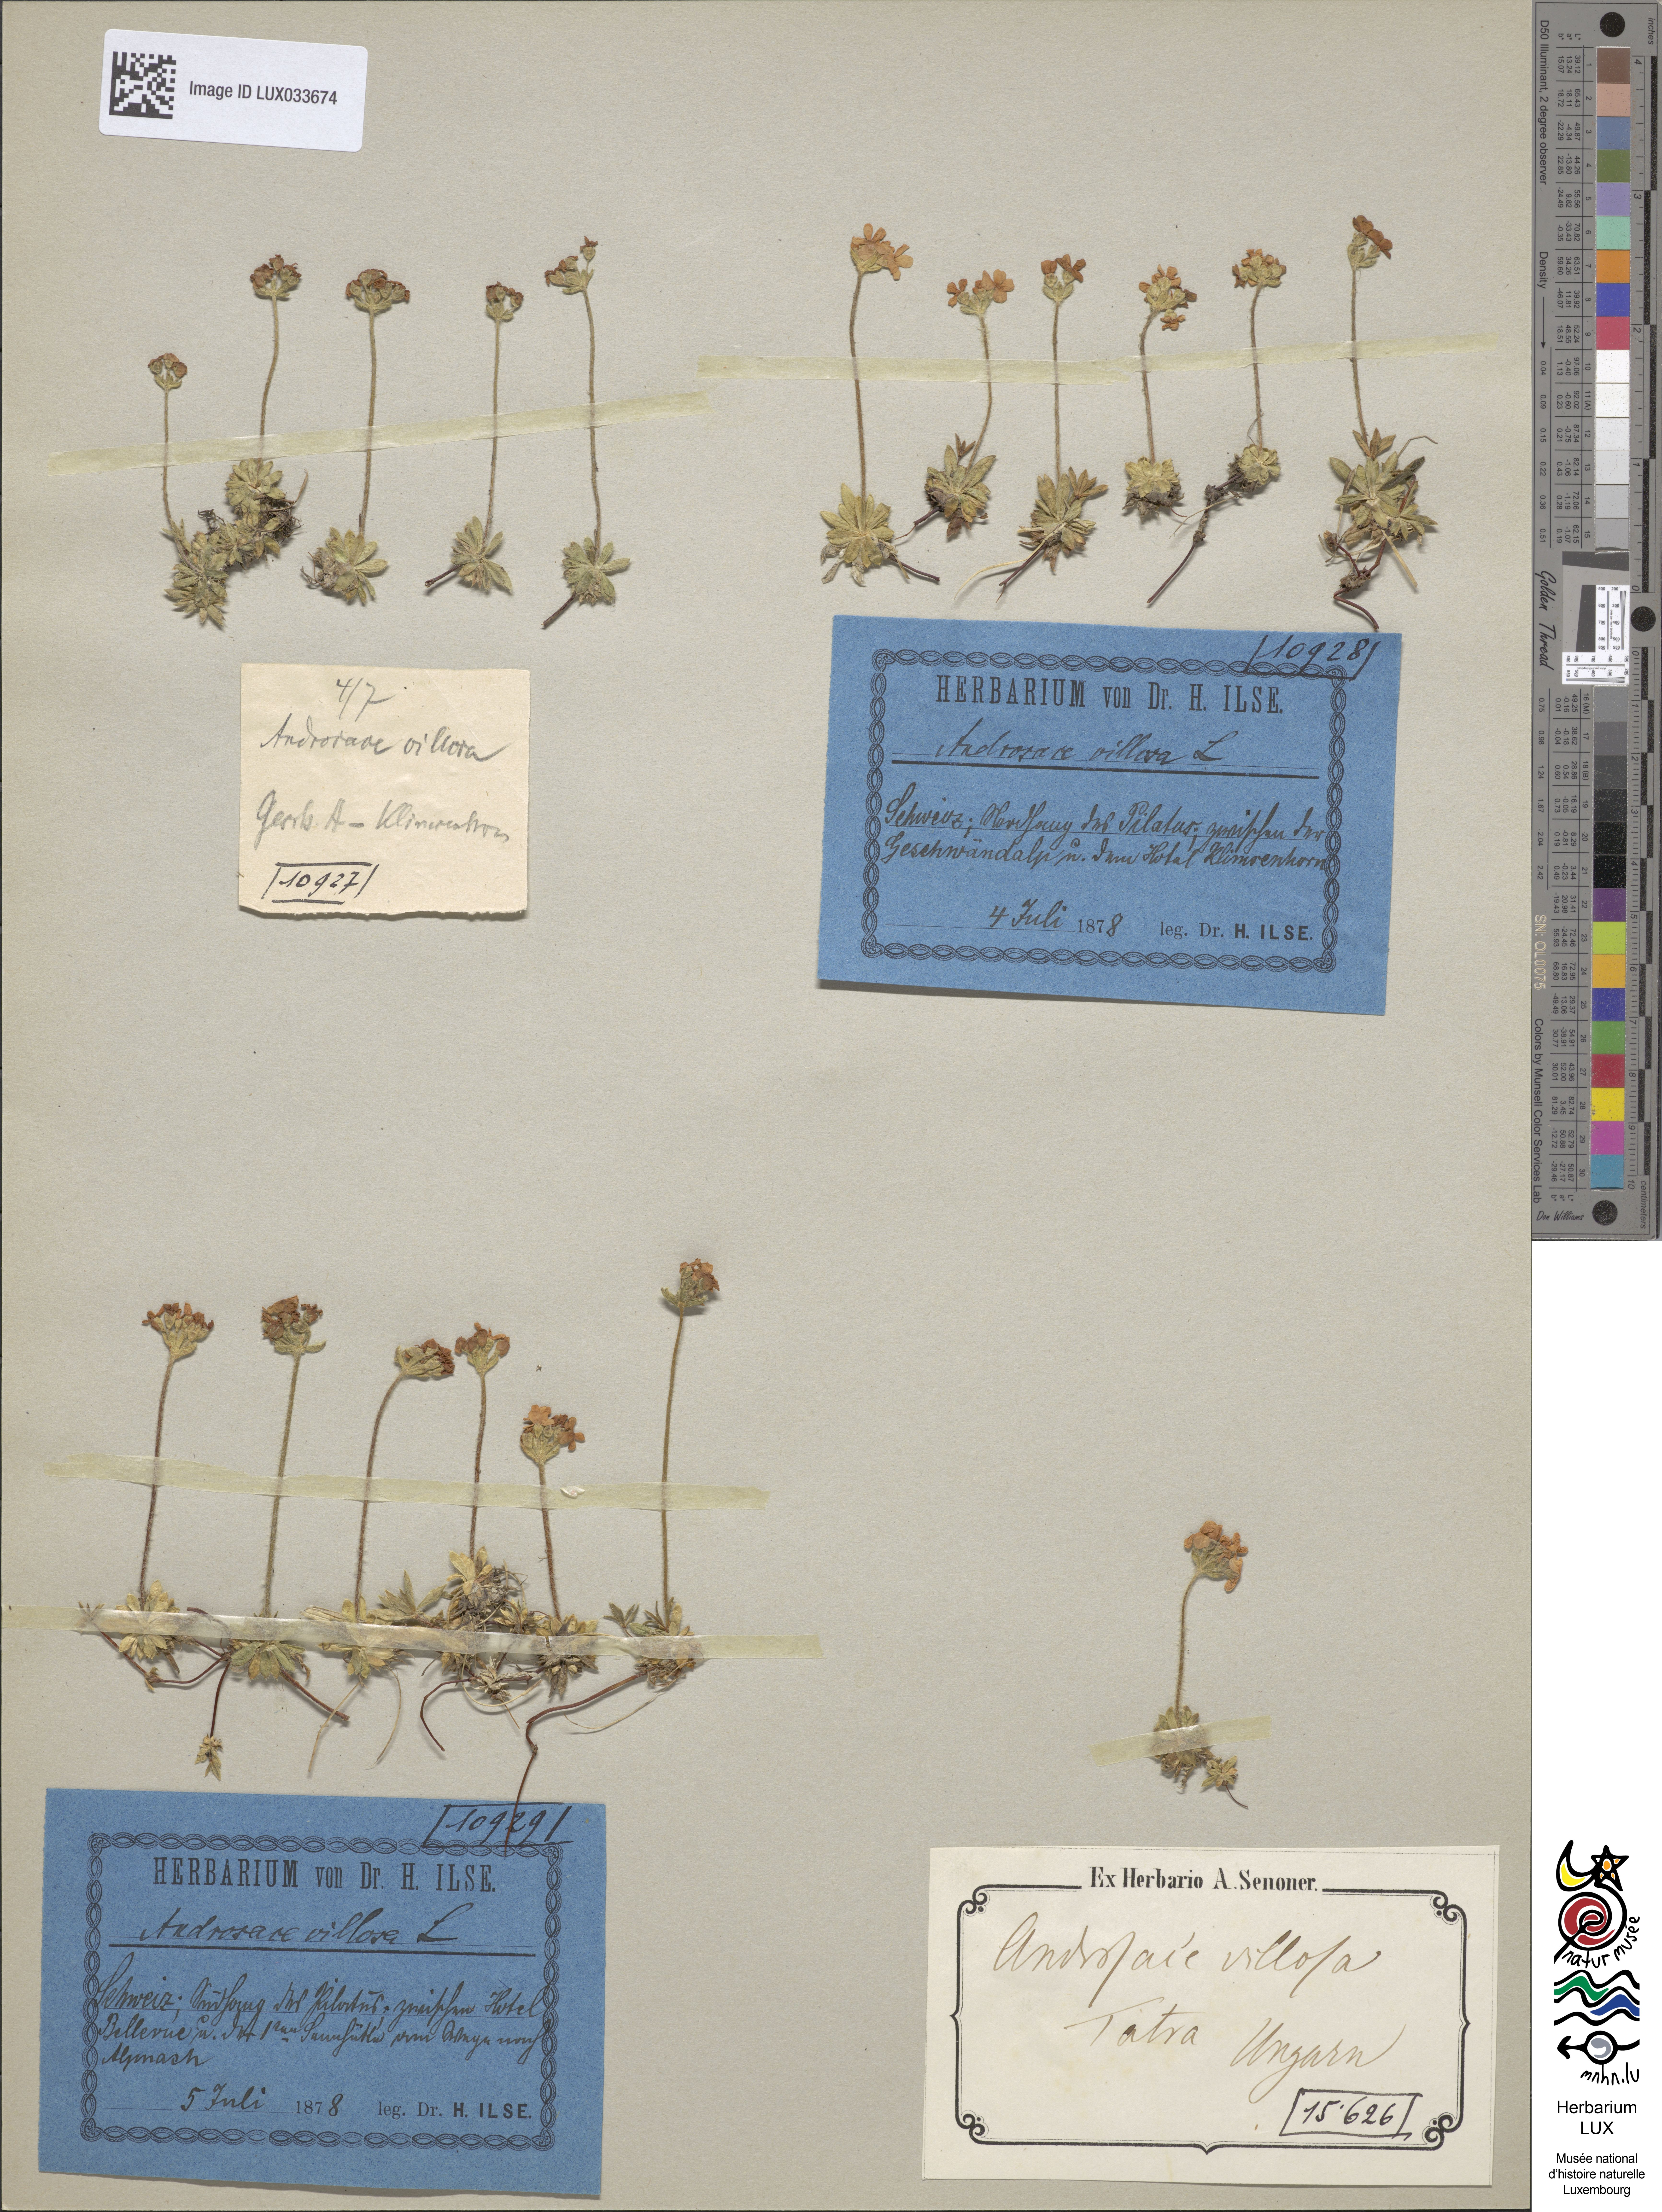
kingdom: Plantae
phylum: Tracheophyta
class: Magnoliopsida
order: Ericales
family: Primulaceae
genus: Androsace
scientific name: Androsace villosa
